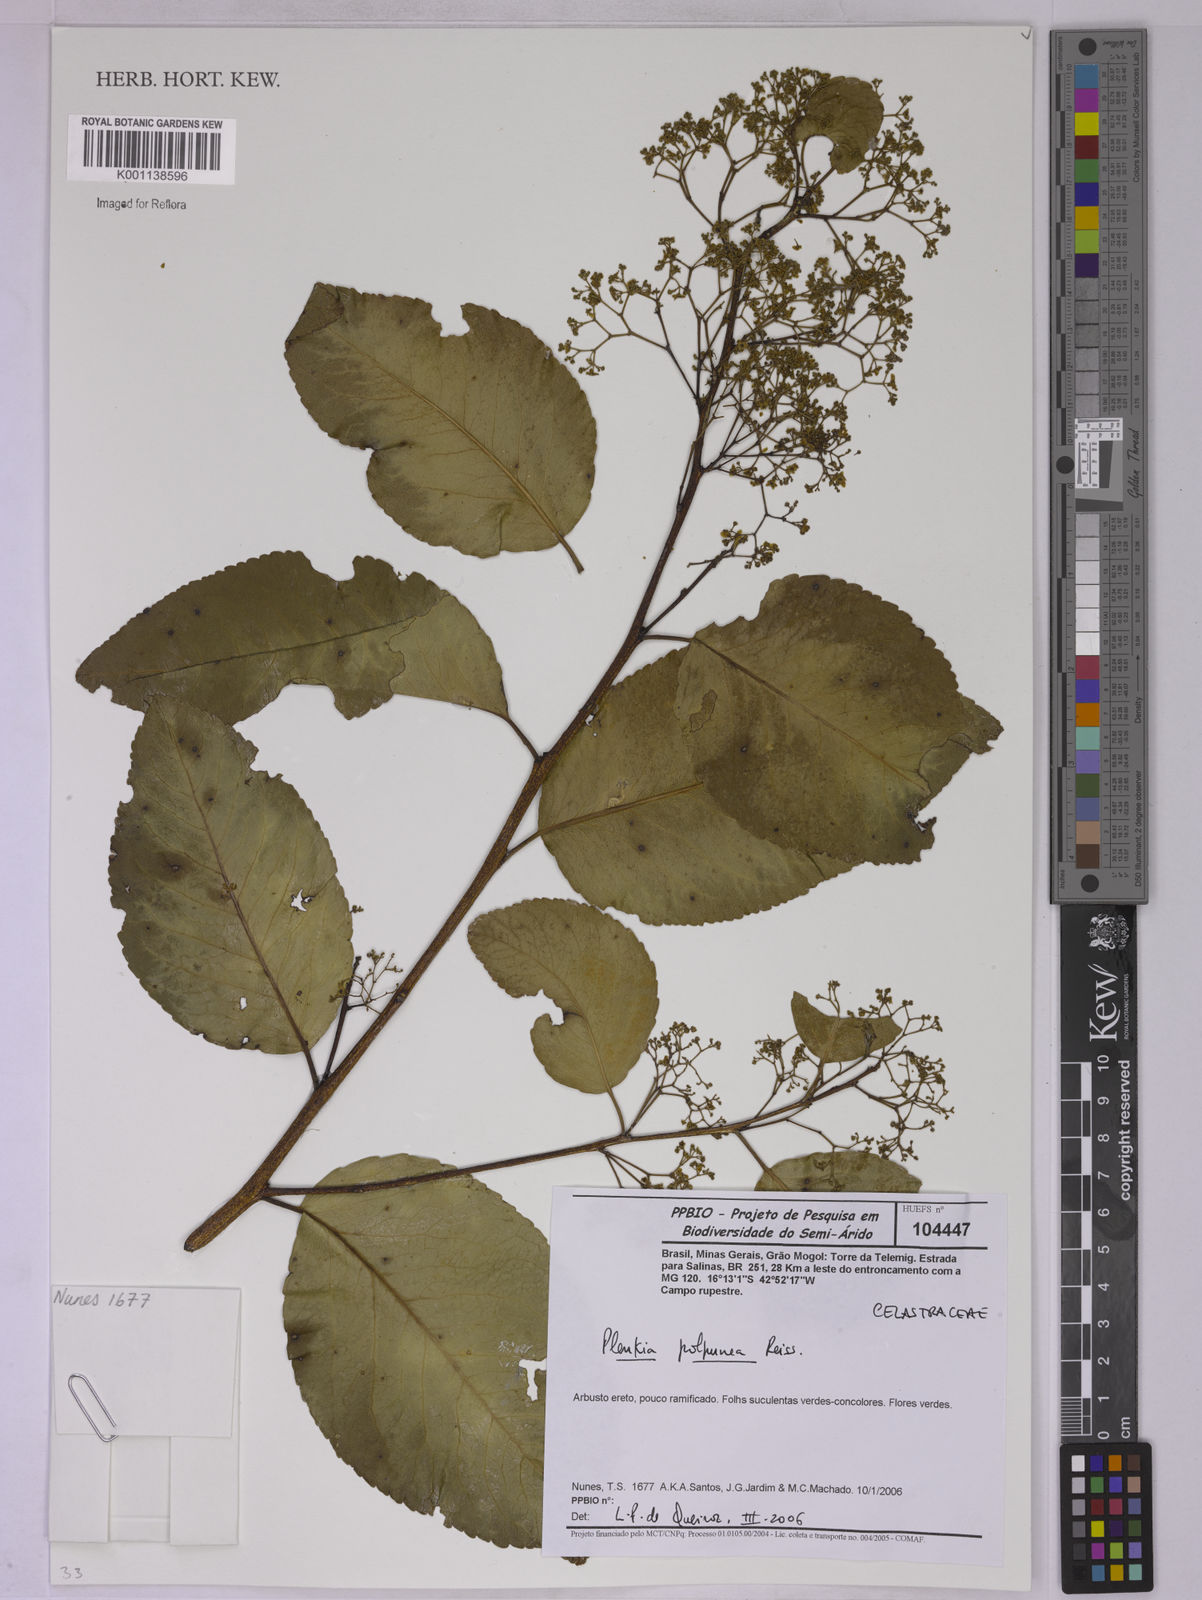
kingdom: Plantae
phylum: Tracheophyta
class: Magnoliopsida
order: Celastrales
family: Celastraceae
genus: Plenckia
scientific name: Plenckia populnea
